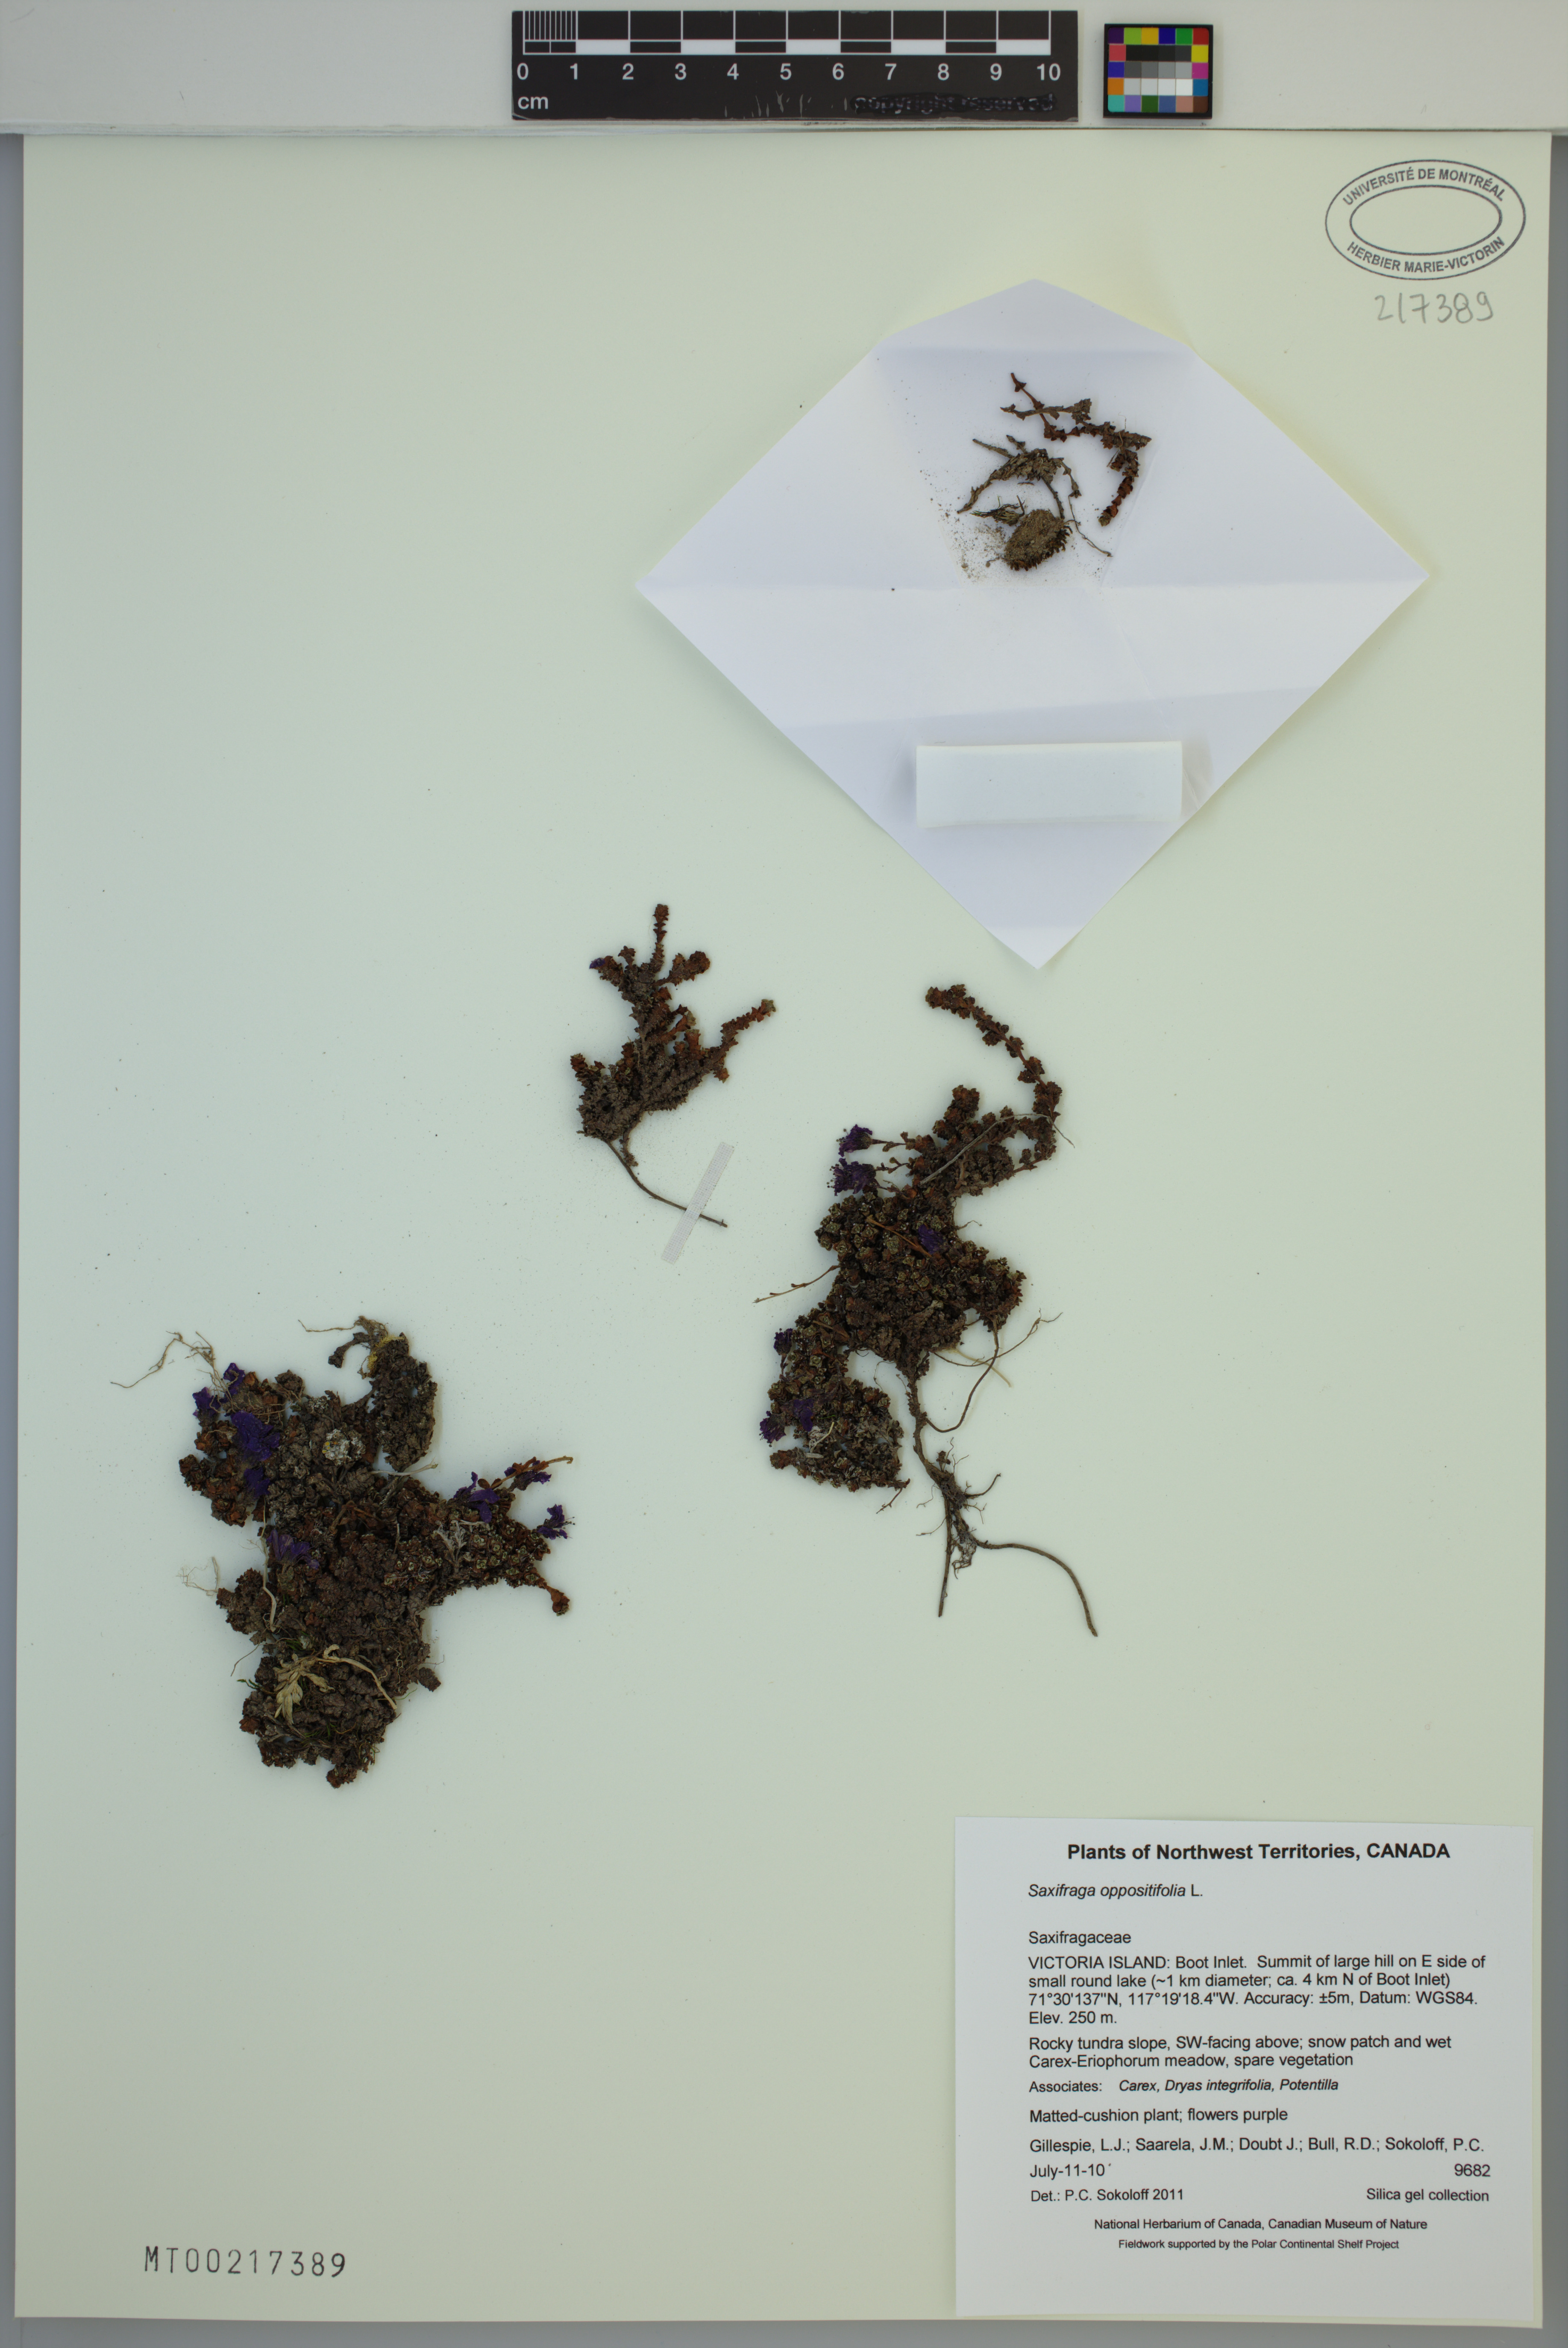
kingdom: Plantae
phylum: Tracheophyta
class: Magnoliopsida
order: Saxifragales
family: Saxifragaceae
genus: Saxifraga
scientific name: Saxifraga oppositifolia
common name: Purple saxifrage
